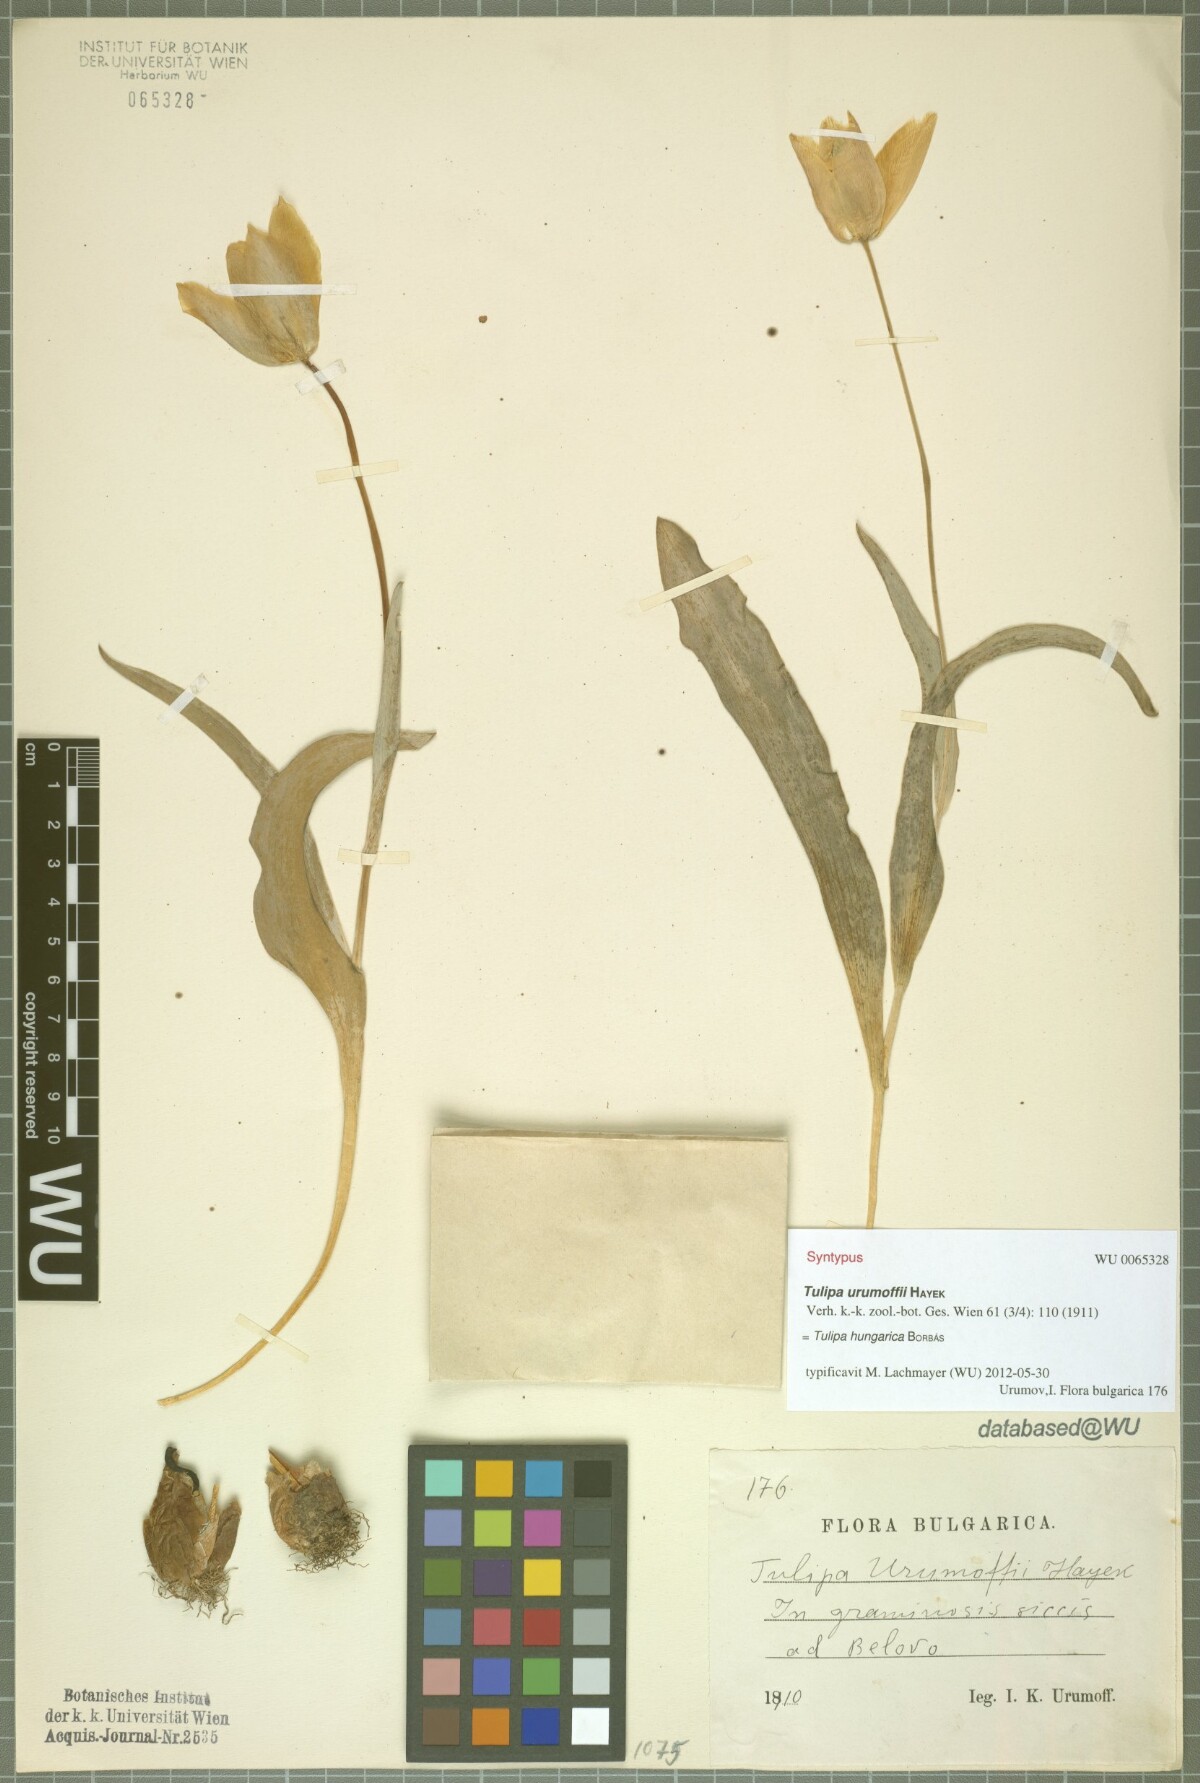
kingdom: Plantae
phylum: Tracheophyta
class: Liliopsida
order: Liliales
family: Liliaceae
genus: Tulipa
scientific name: Tulipa hungarica
